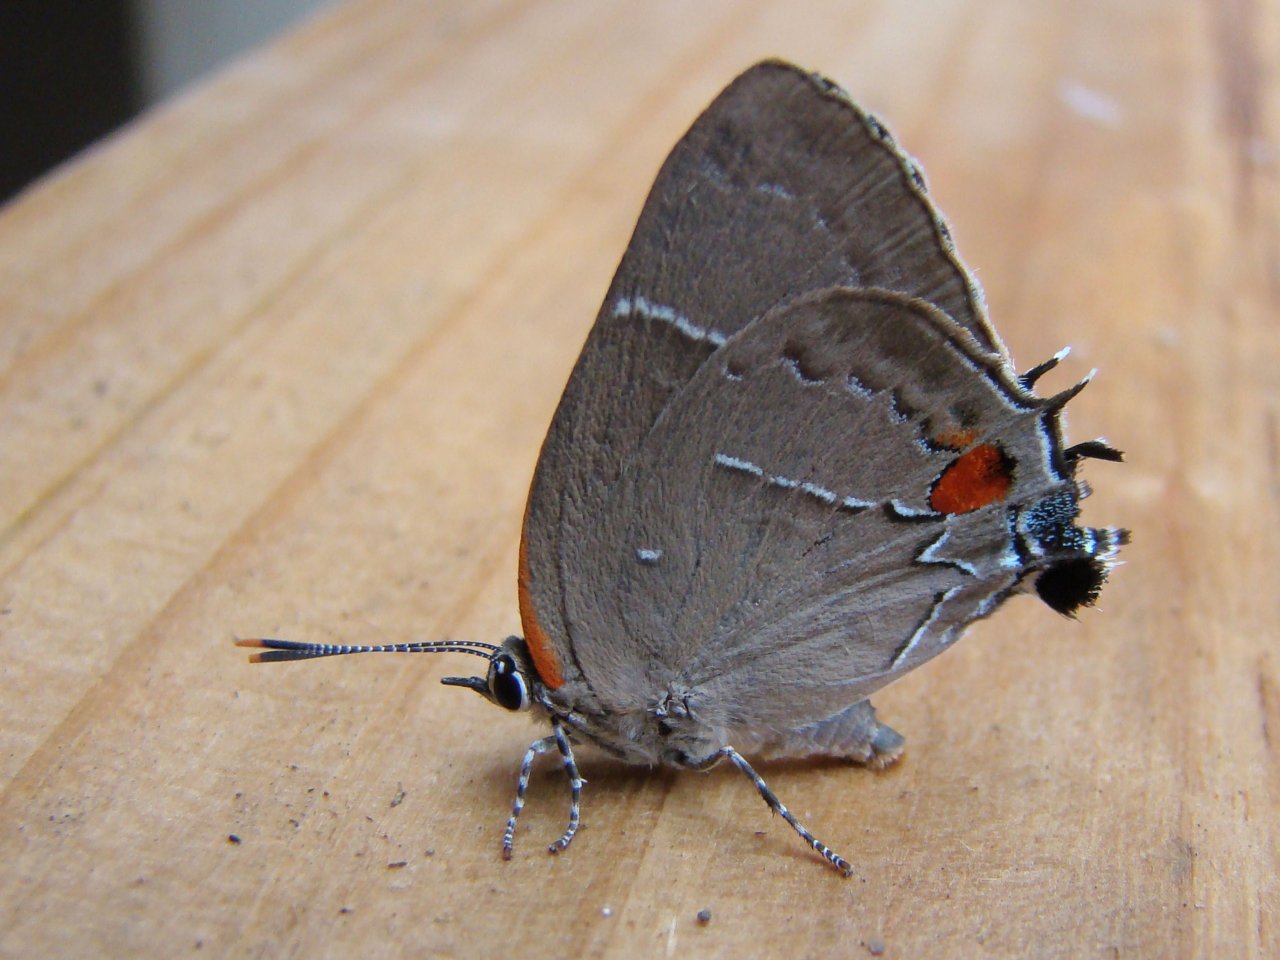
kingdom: Animalia
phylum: Arthropoda
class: Insecta
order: Lepidoptera
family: Lycaenidae
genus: Parrhasius
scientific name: Parrhasius m-album
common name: White-m Hairstreak
